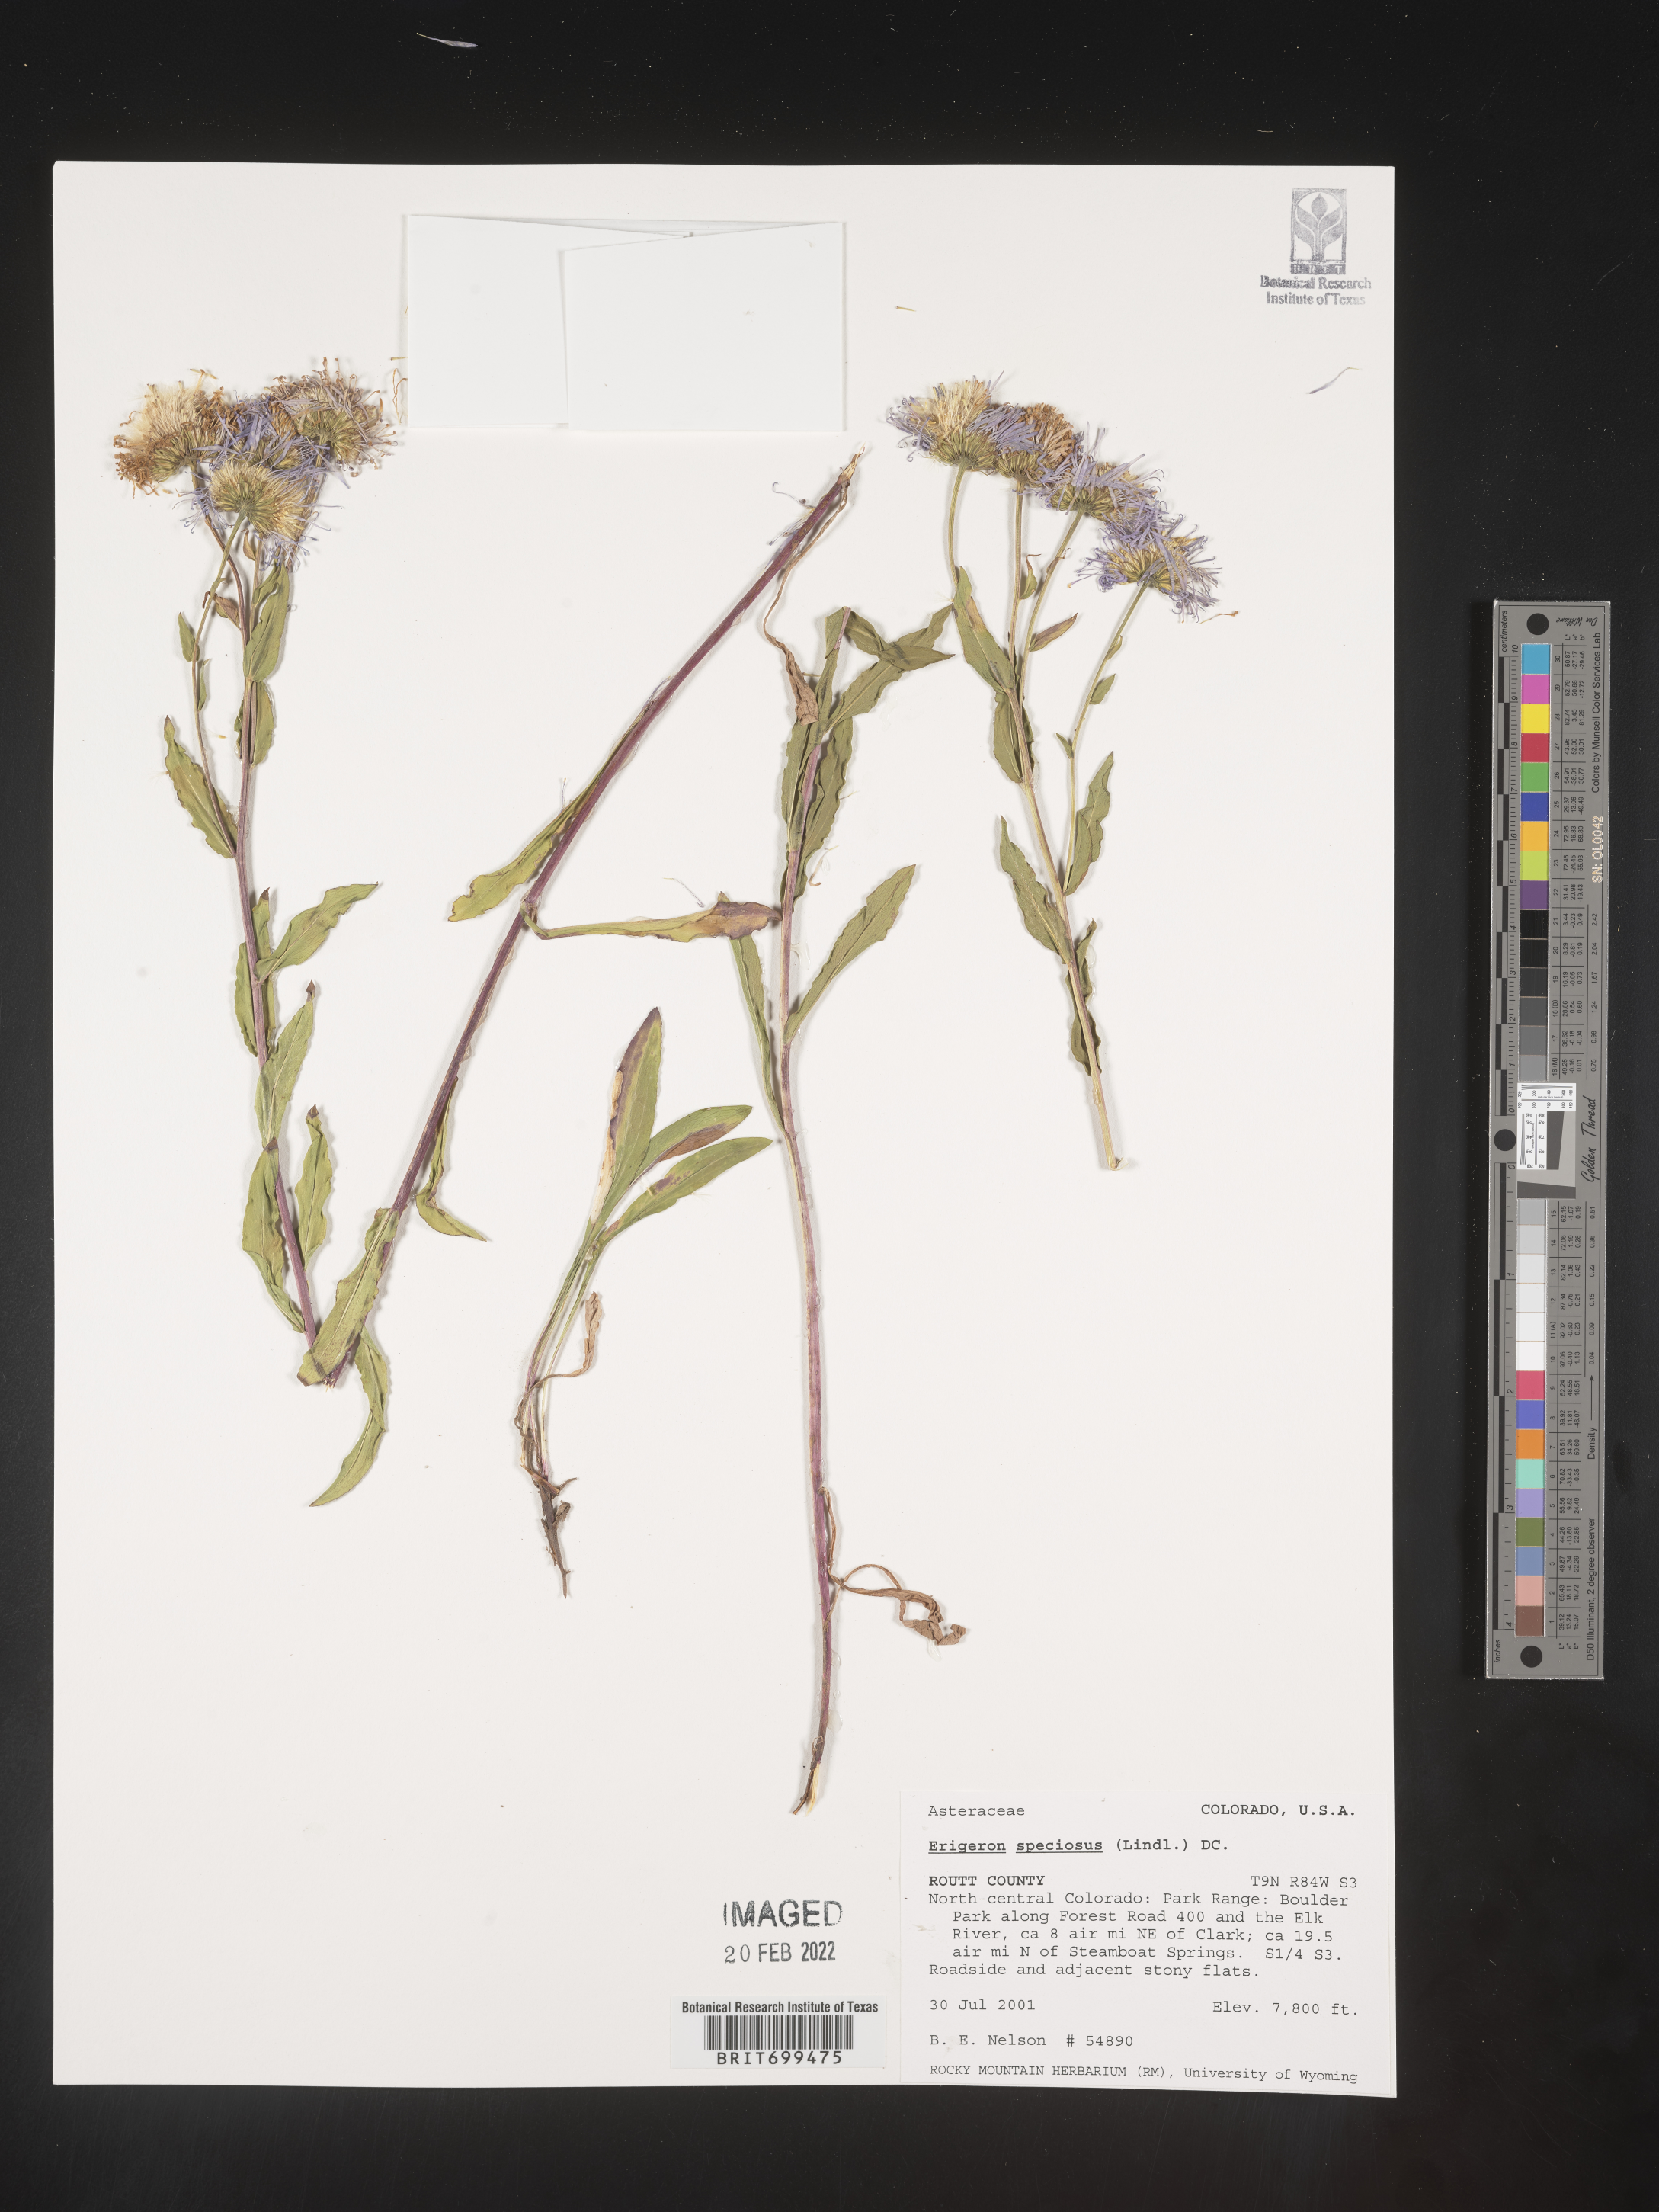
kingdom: Plantae
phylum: Tracheophyta
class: Magnoliopsida
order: Asterales
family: Asteraceae
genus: Erigeron
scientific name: Erigeron speciosus
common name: Aspen fleabane
